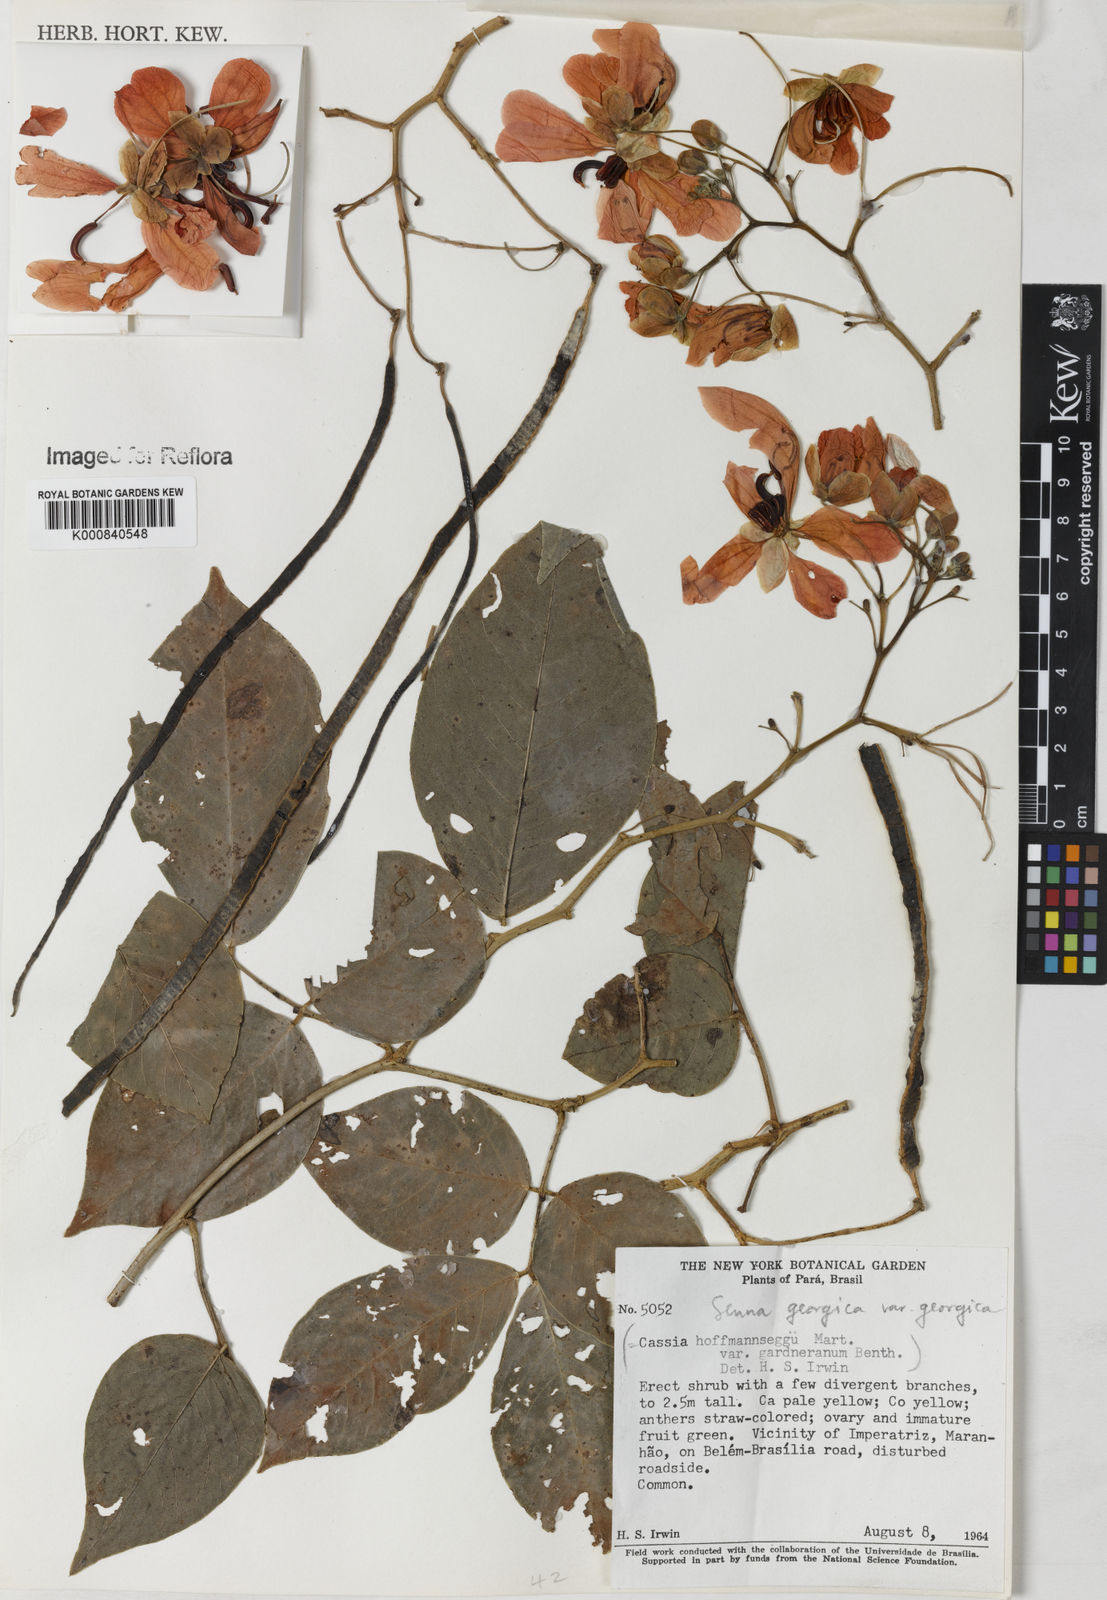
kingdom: Plantae
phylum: Tracheophyta
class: Magnoliopsida
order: Fabales
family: Fabaceae
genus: Senna
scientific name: Senna georgica
